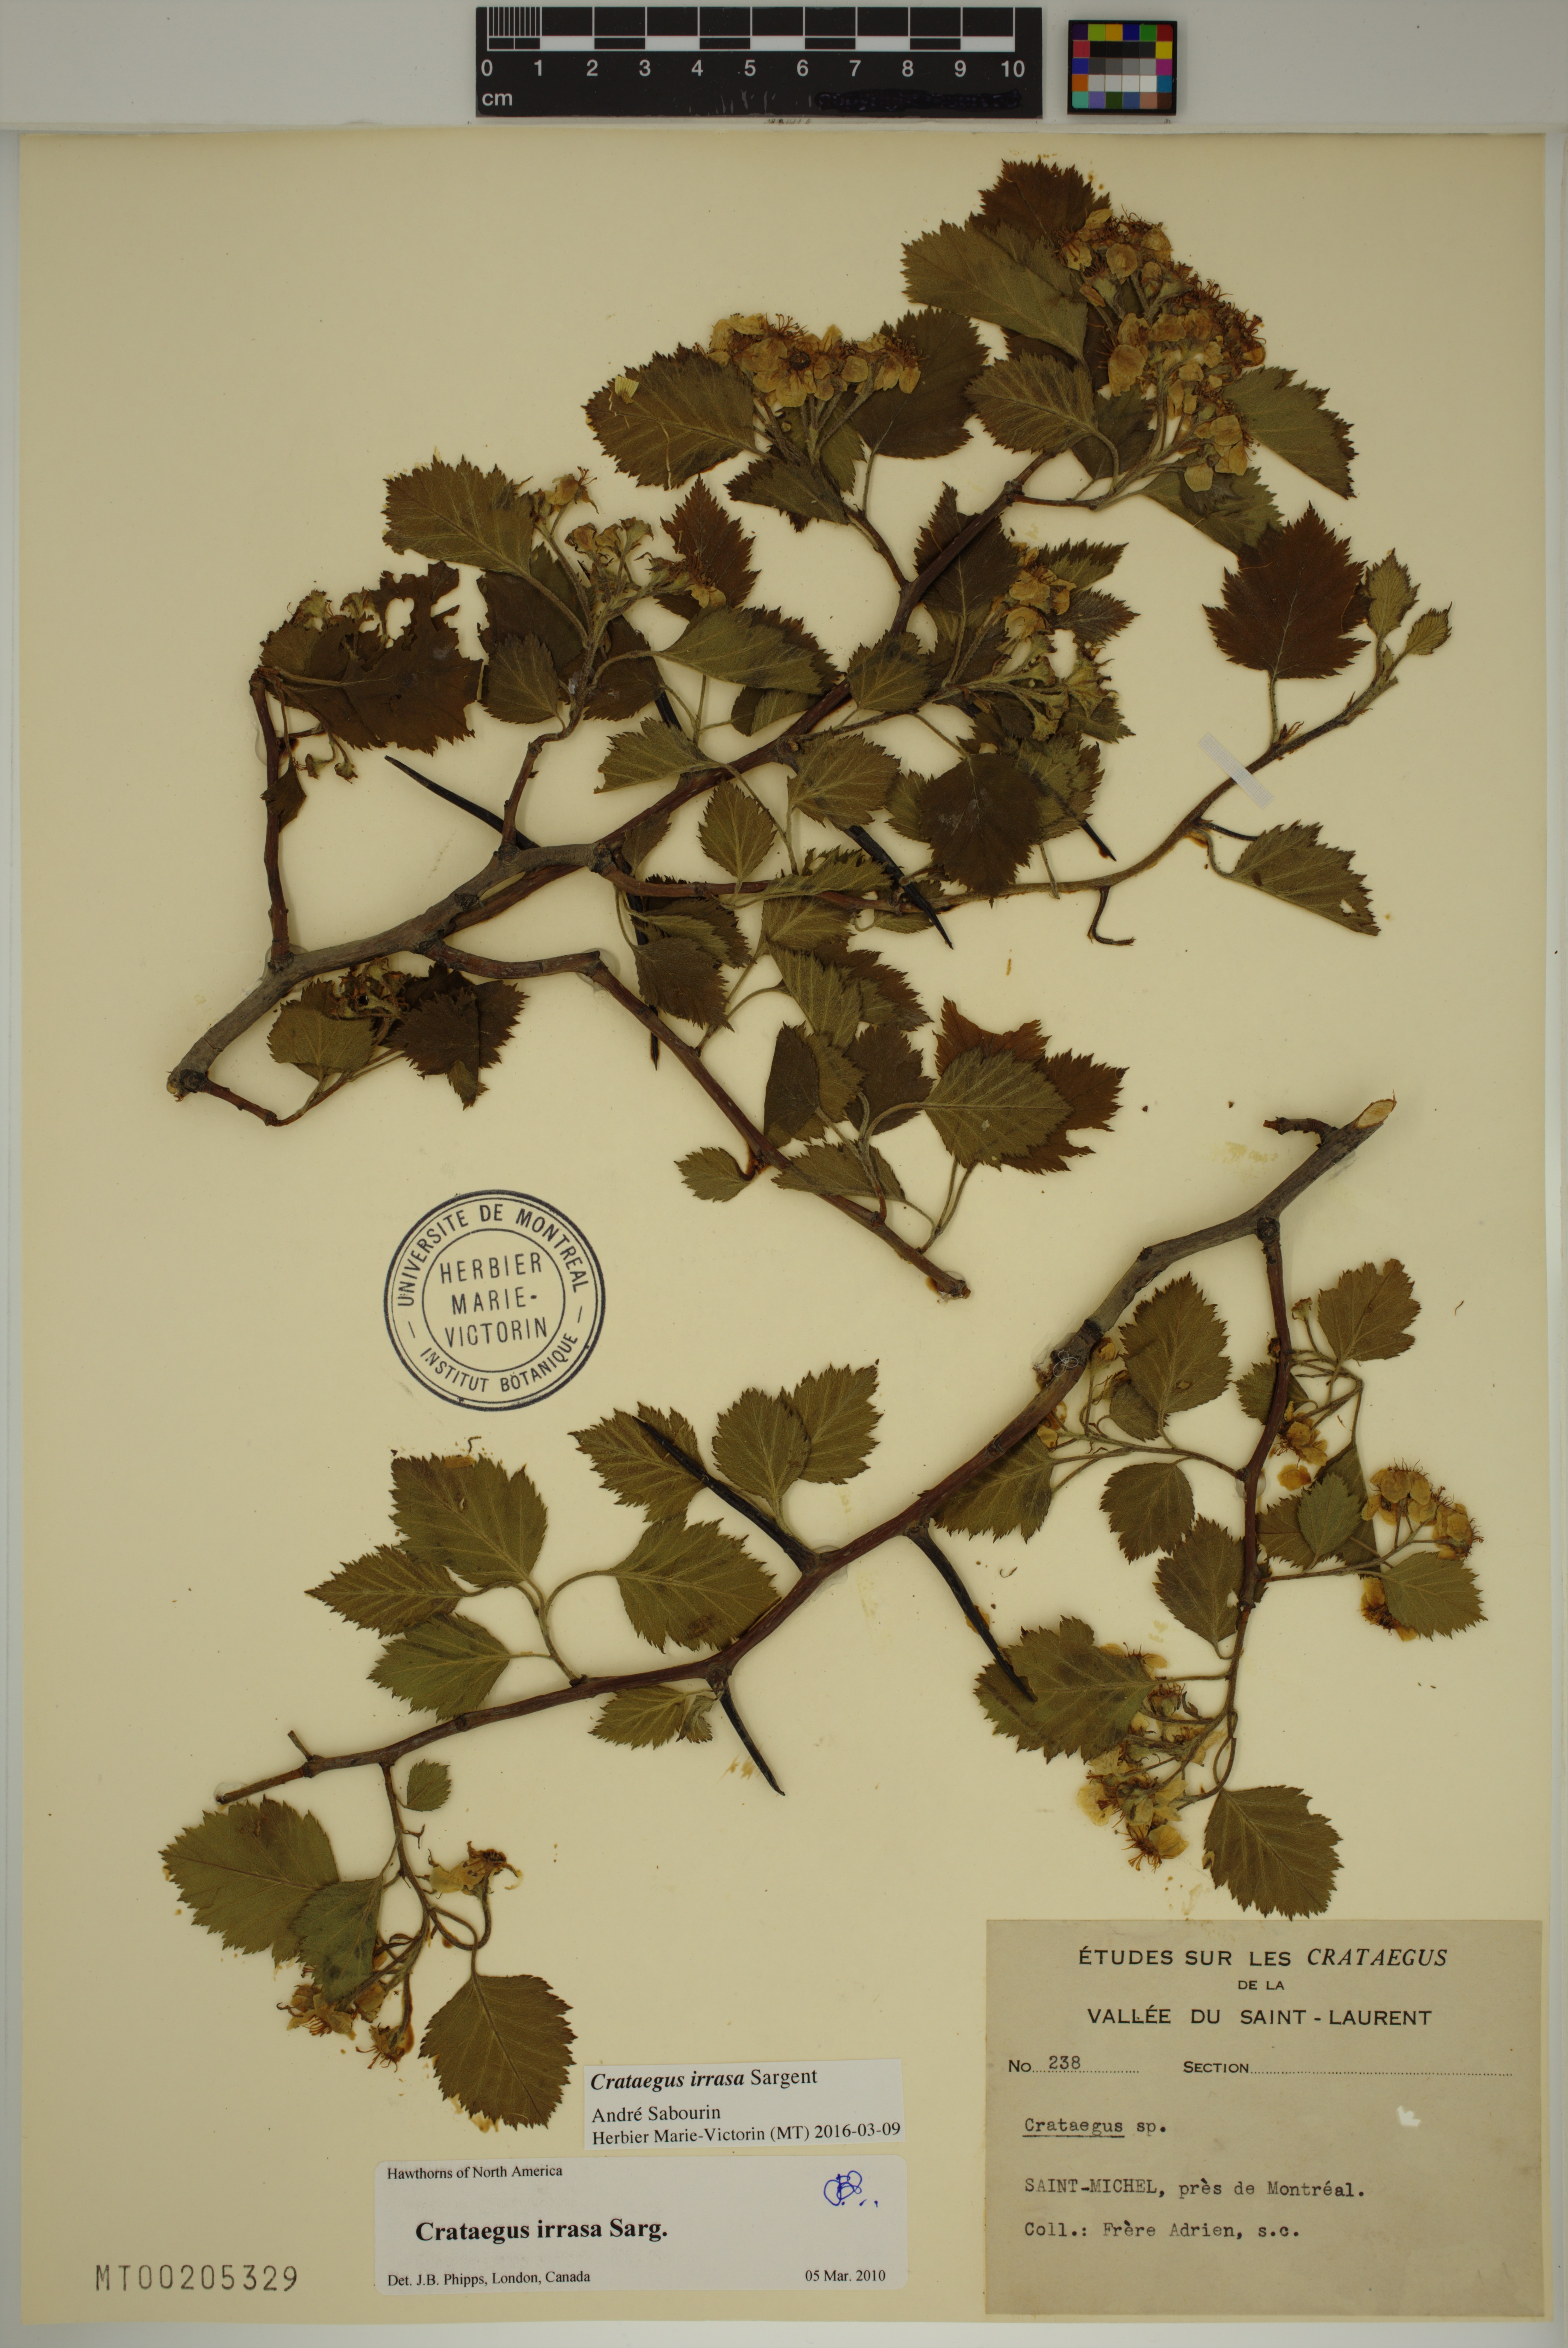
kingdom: Plantae
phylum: Tracheophyta
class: Magnoliopsida
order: Rosales
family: Rosaceae
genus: Crataegus
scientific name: Crataegus irrasa
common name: Unshorn hawthorn
